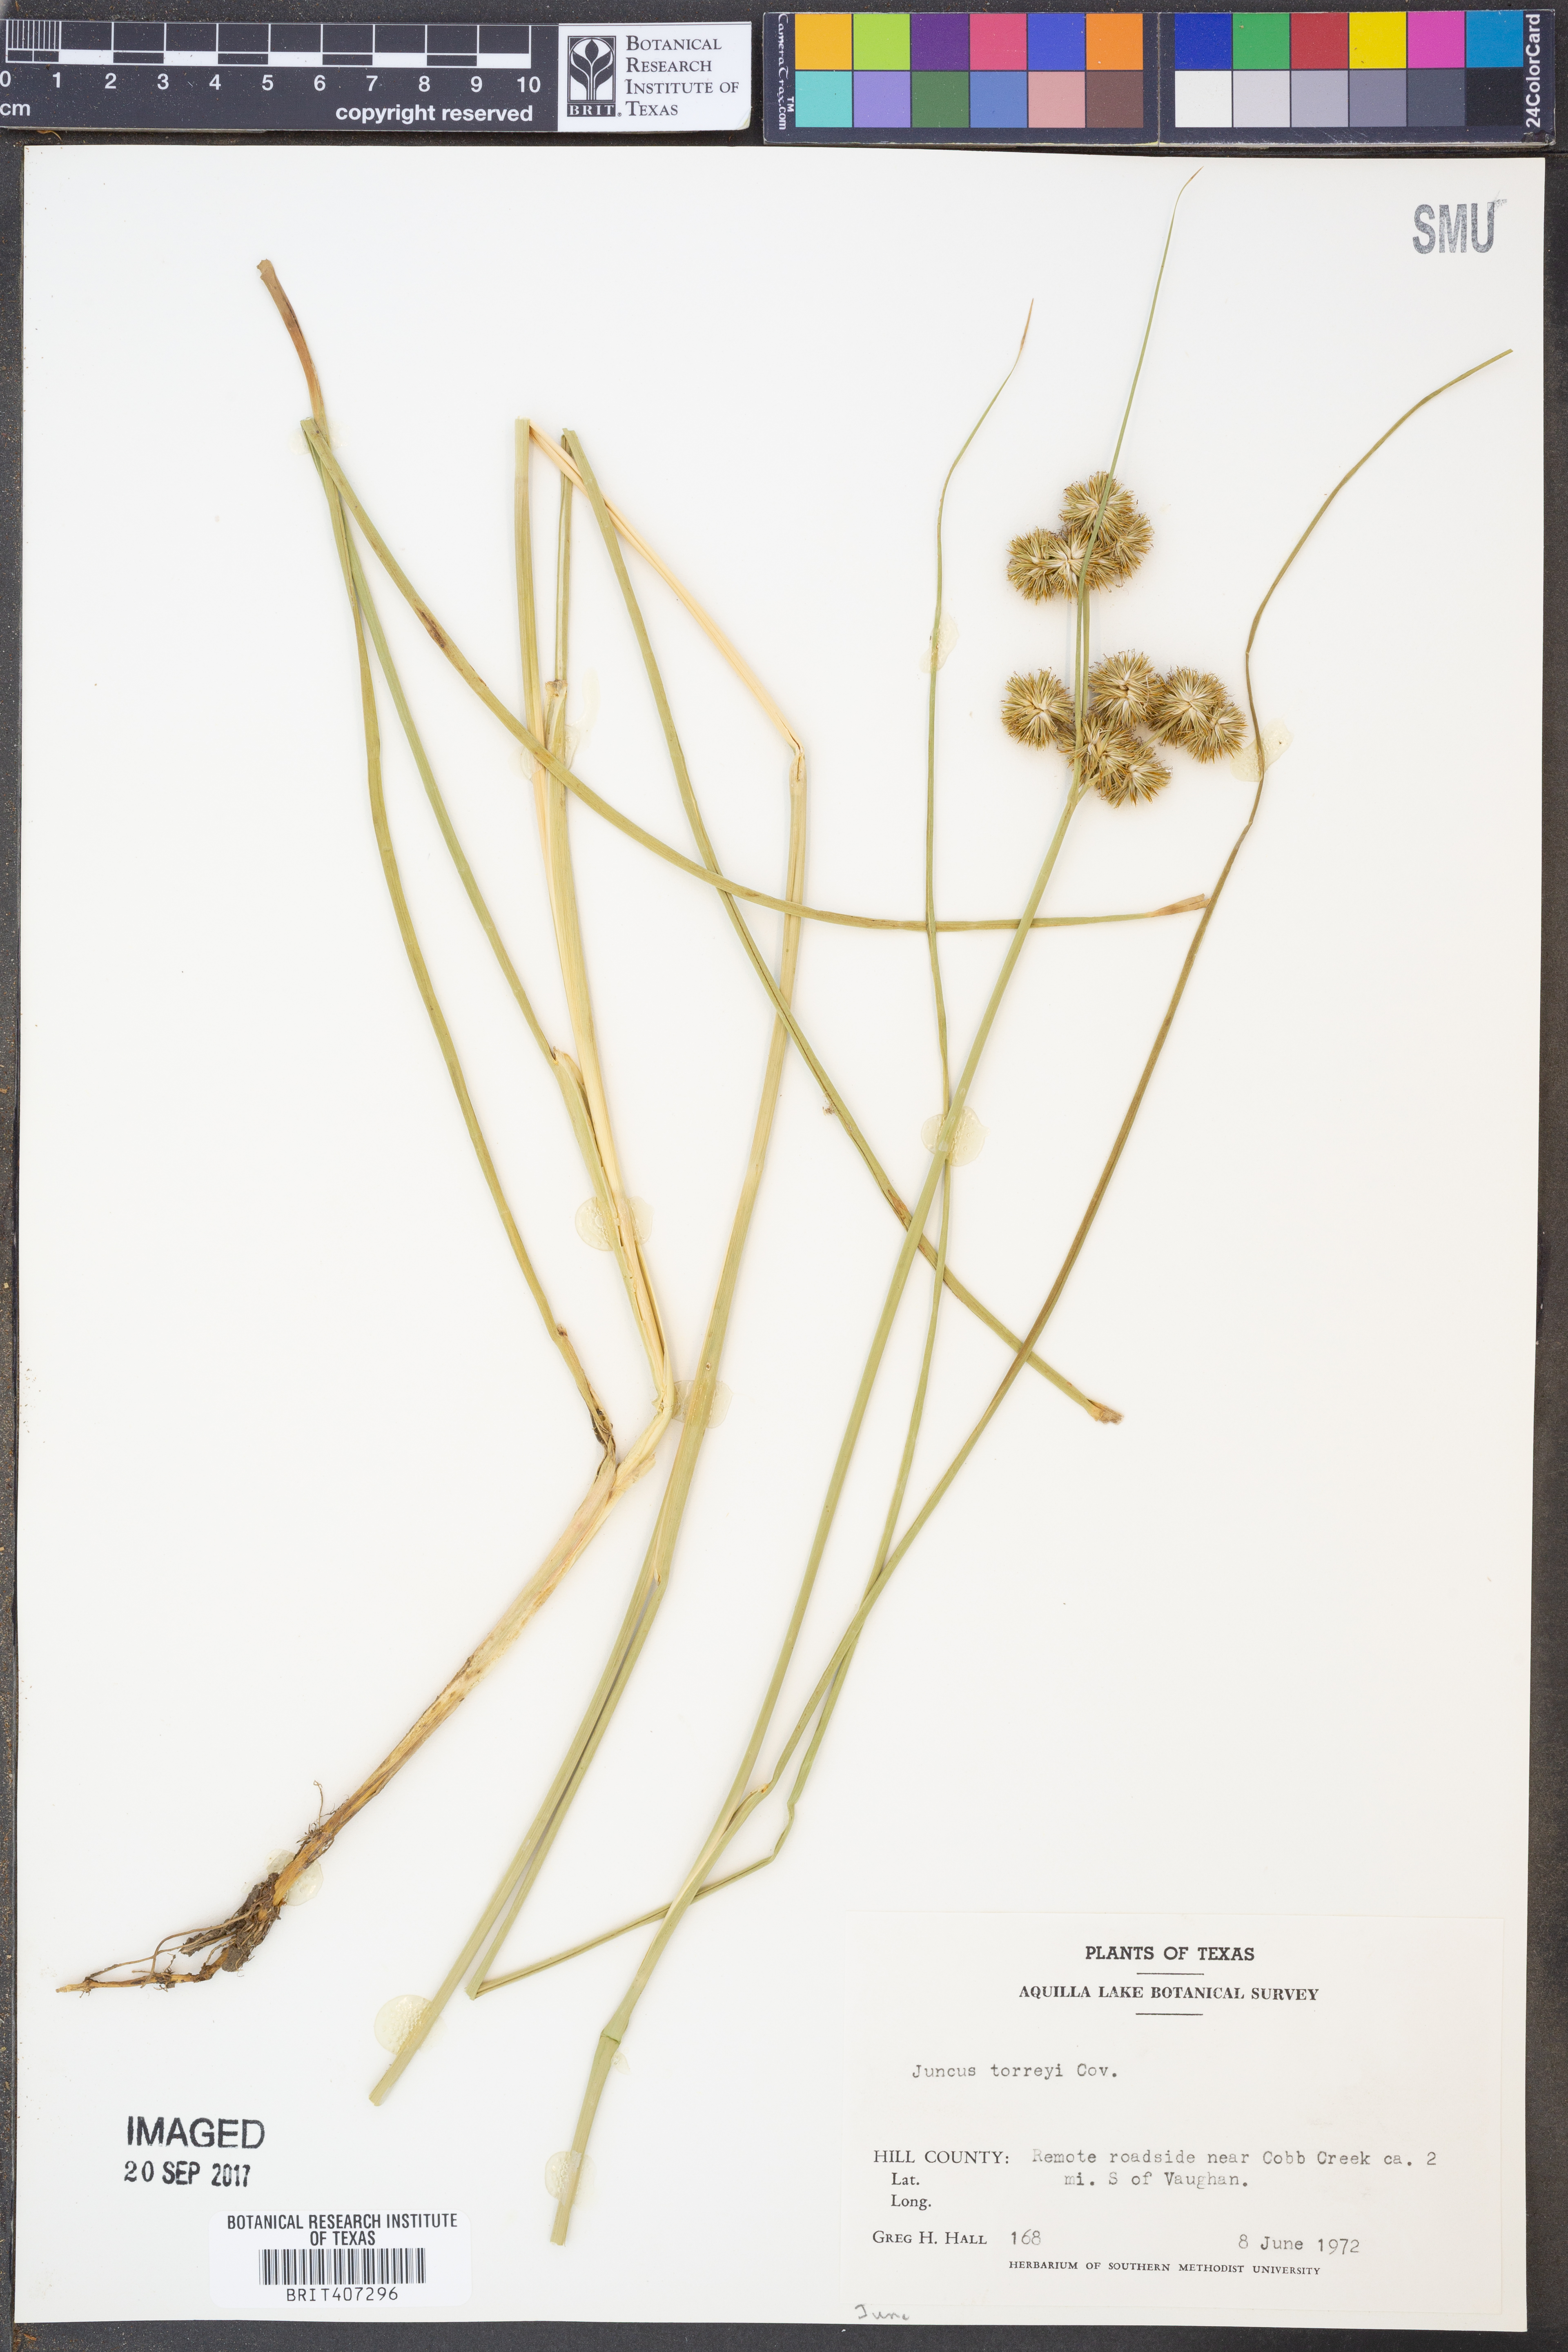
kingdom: Plantae
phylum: Tracheophyta
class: Liliopsida
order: Poales
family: Juncaceae
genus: Juncus
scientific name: Juncus torreyi
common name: Torrey's rush
